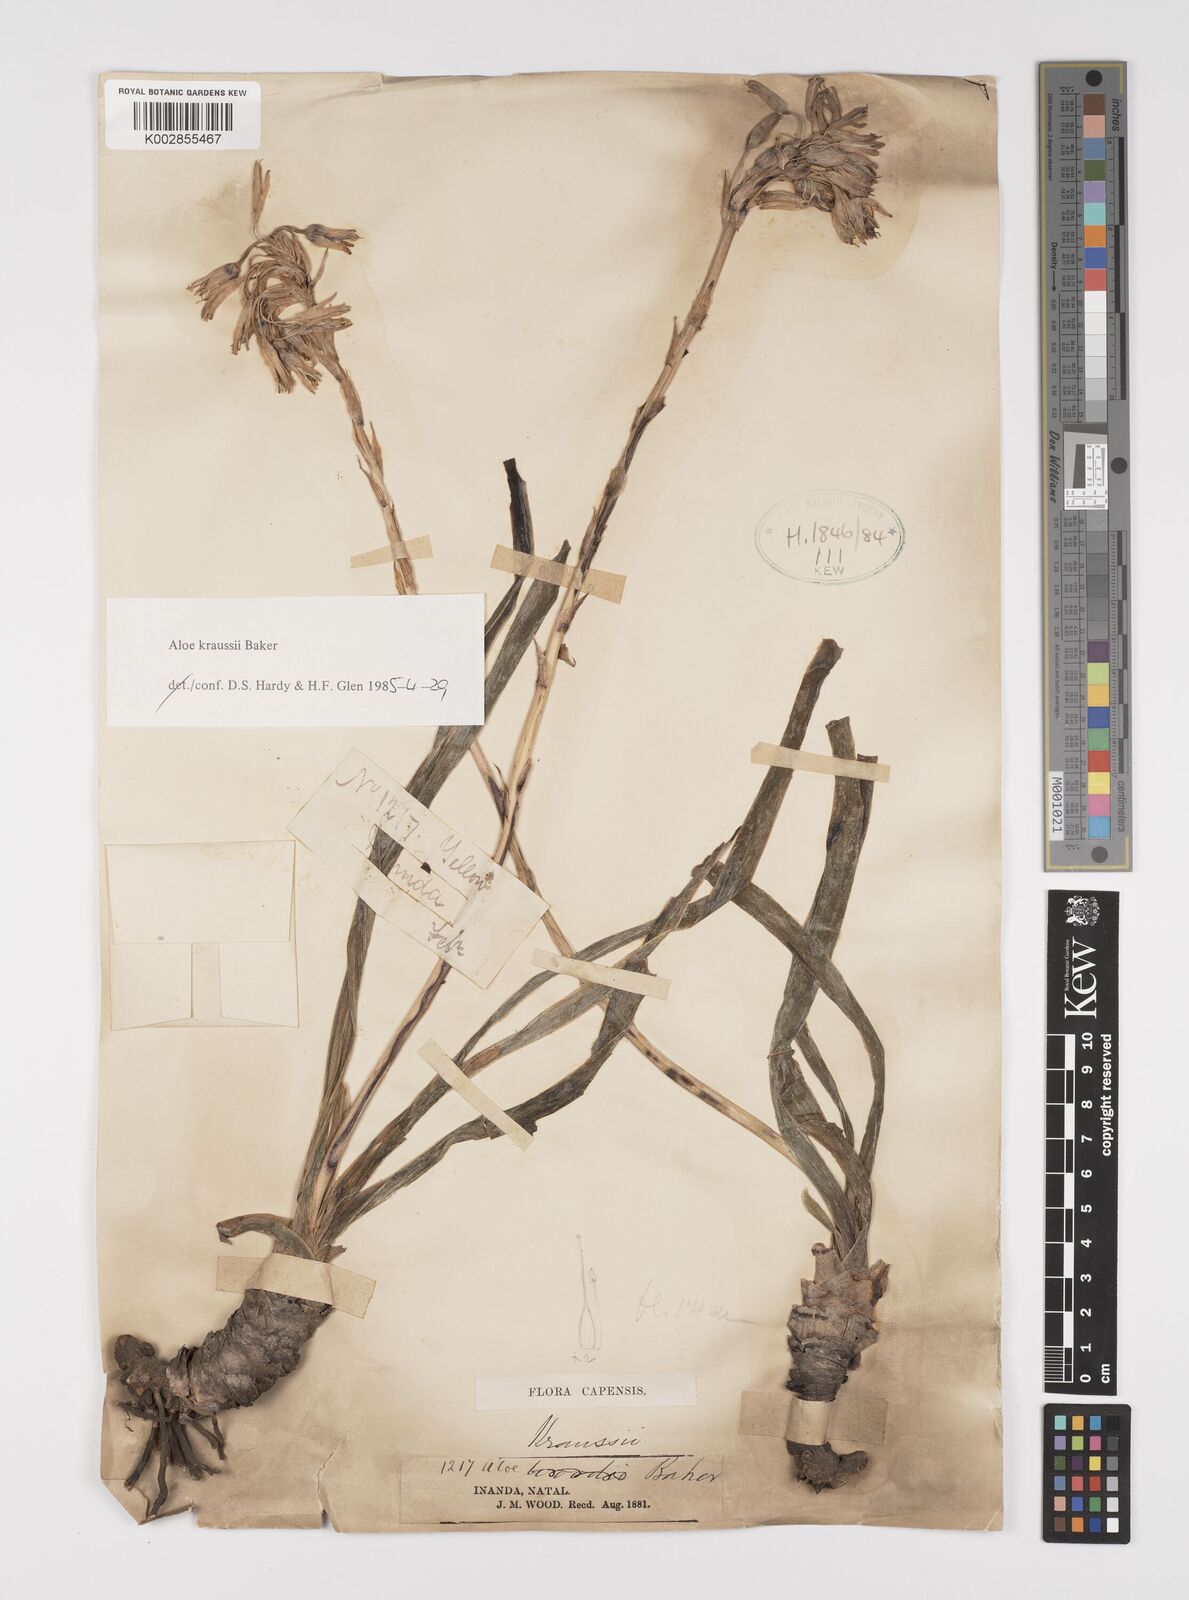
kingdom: Plantae
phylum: Tracheophyta
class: Liliopsida
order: Asparagales
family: Asphodelaceae
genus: Aloe
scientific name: Aloe kraussii
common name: Broad-leaved yellow grass aloe
